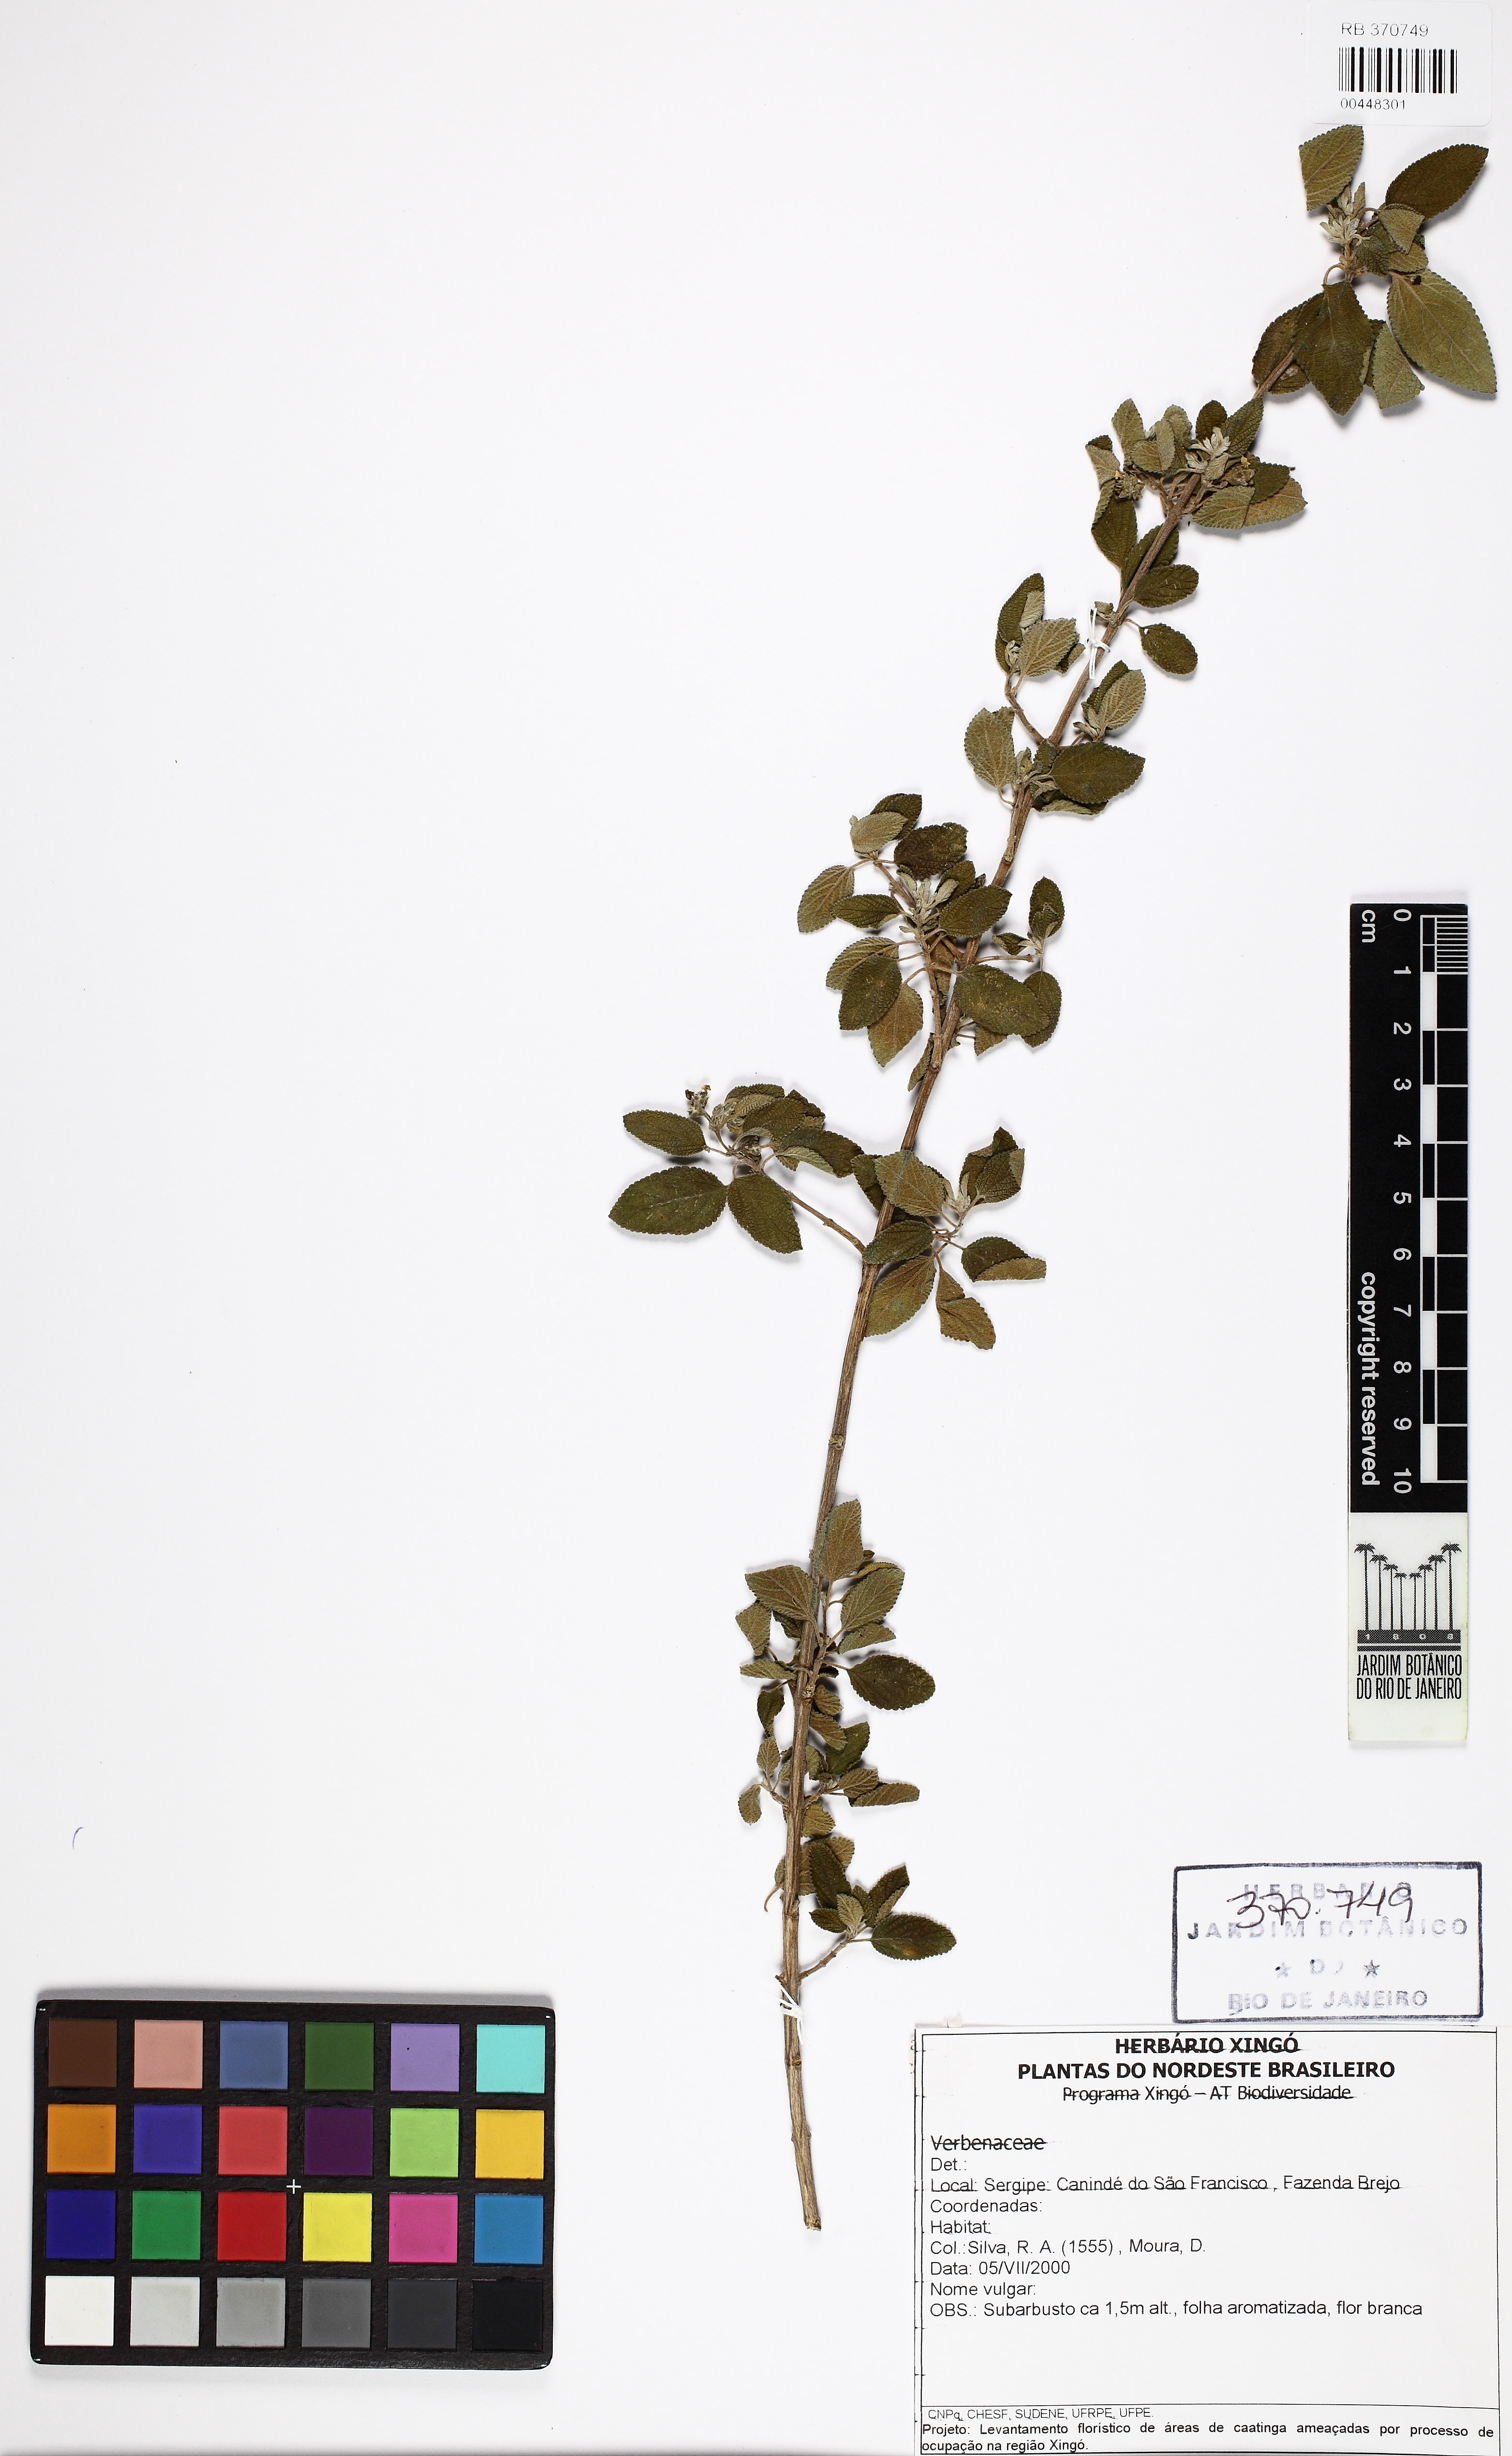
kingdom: Plantae
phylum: Tracheophyta
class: Magnoliopsida
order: Lamiales
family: Verbenaceae
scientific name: Verbenaceae
